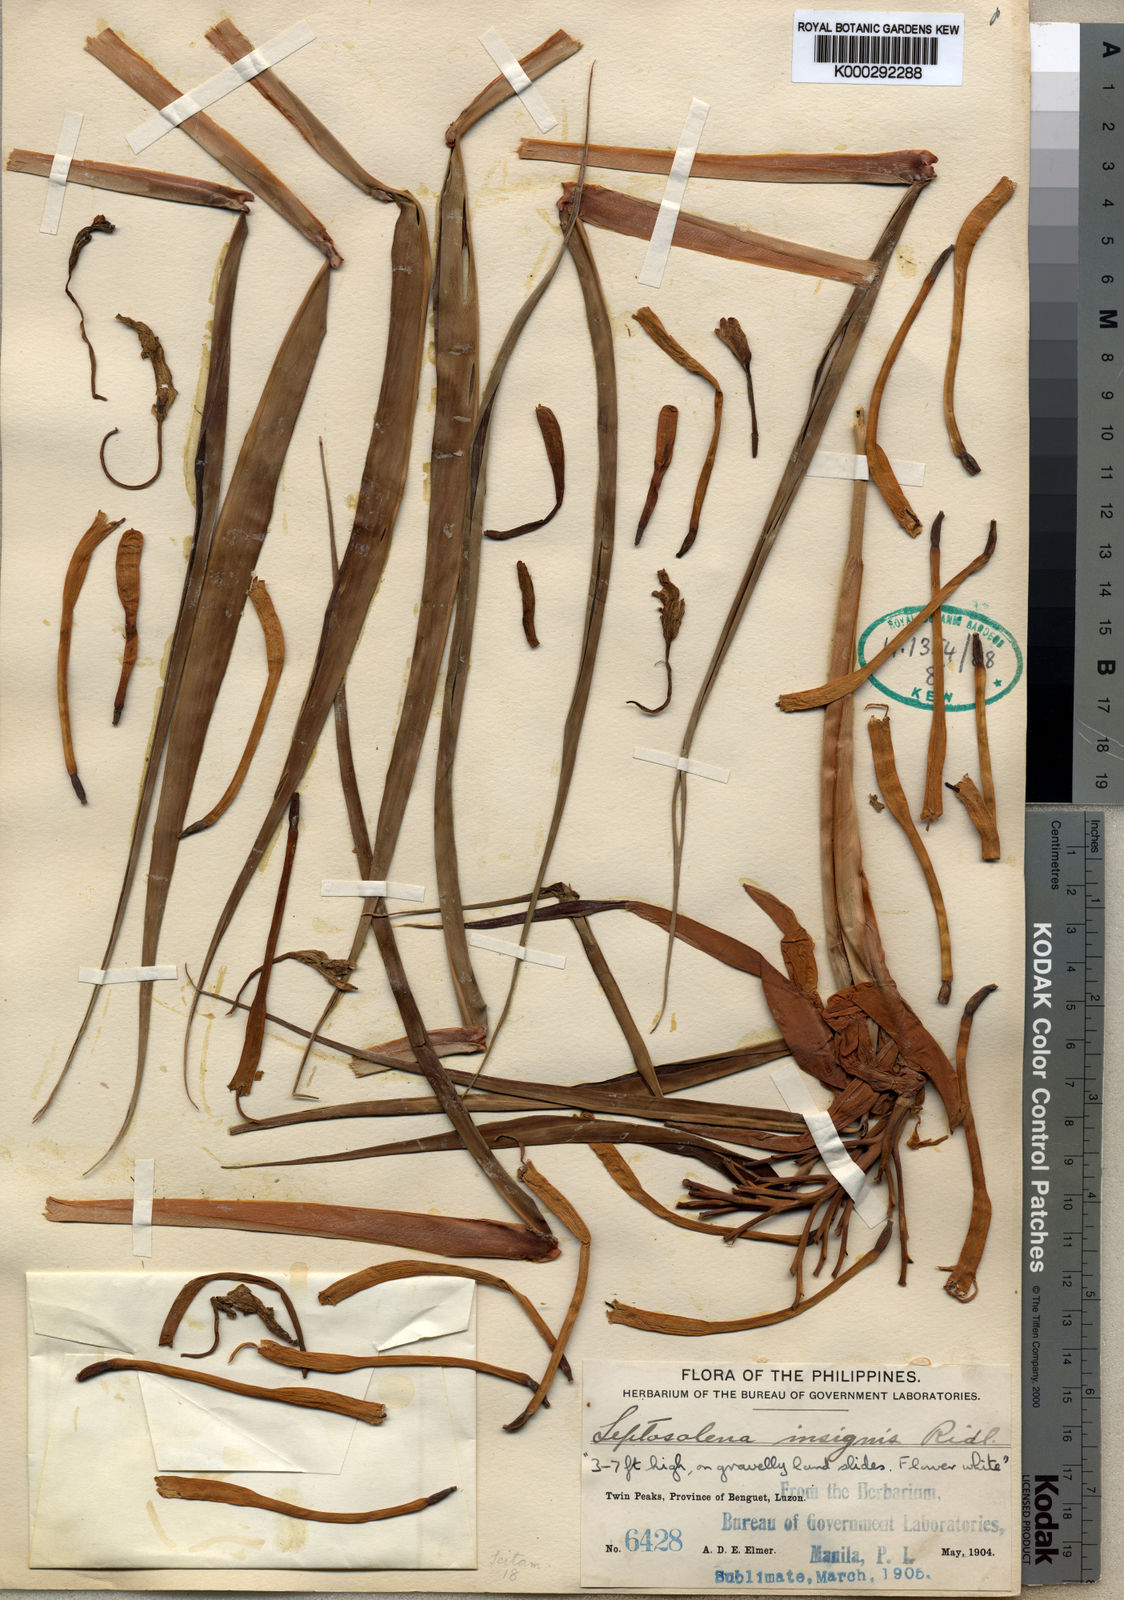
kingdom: Plantae
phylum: Tracheophyta
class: Liliopsida
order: Zingiberales
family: Zingiberaceae
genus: Leptosolena
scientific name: Leptosolena haenkei
